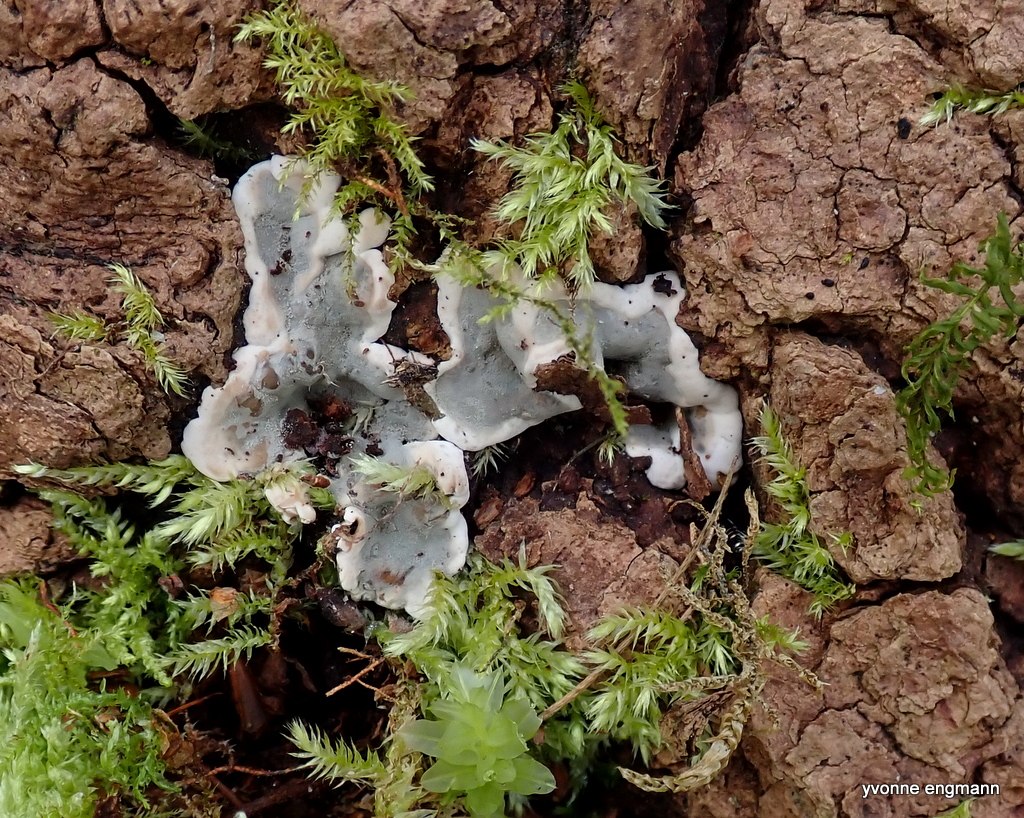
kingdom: Fungi
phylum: Ascomycota
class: Sordariomycetes
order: Xylariales
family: Xylariaceae
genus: Kretzschmaria
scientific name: Kretzschmaria deusta
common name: stor kulsvamp
